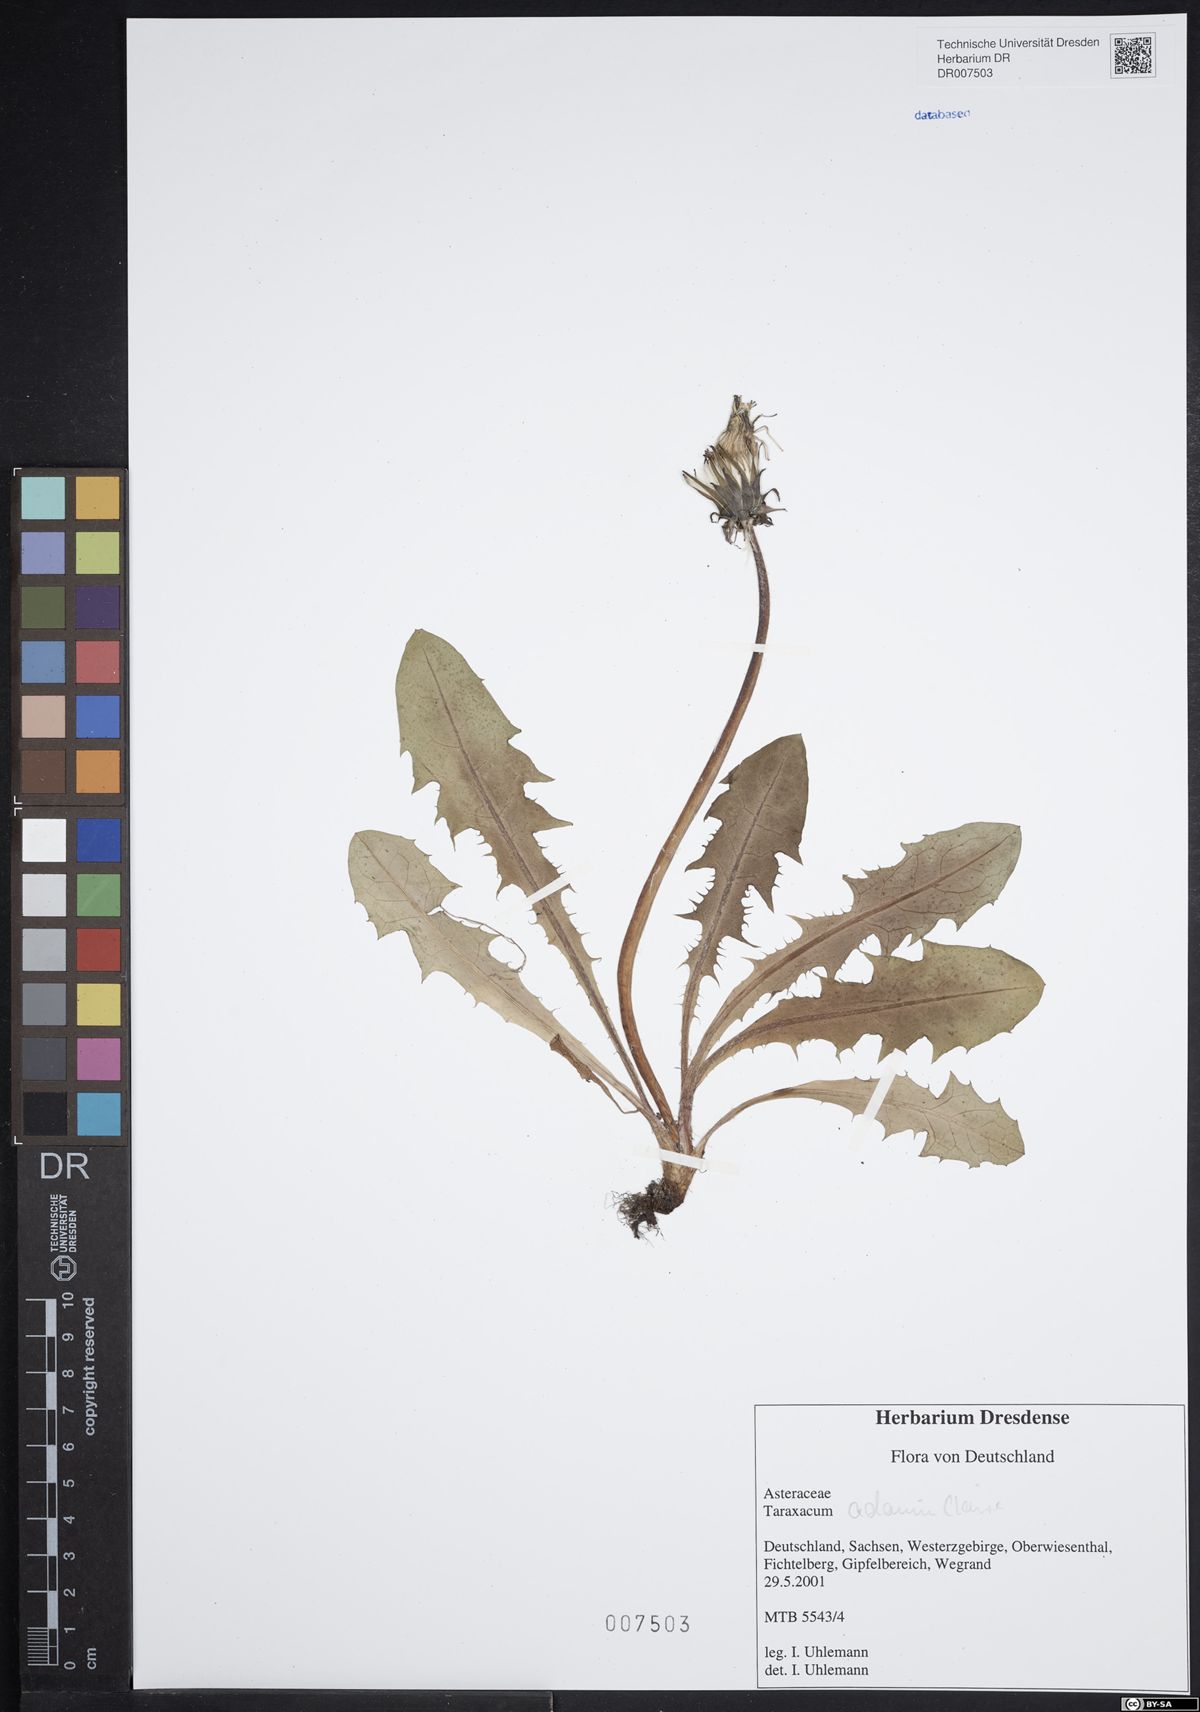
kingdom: Plantae
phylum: Tracheophyta
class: Magnoliopsida
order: Asterales
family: Asteraceae
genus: Taraxacum
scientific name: Taraxacum adamii
